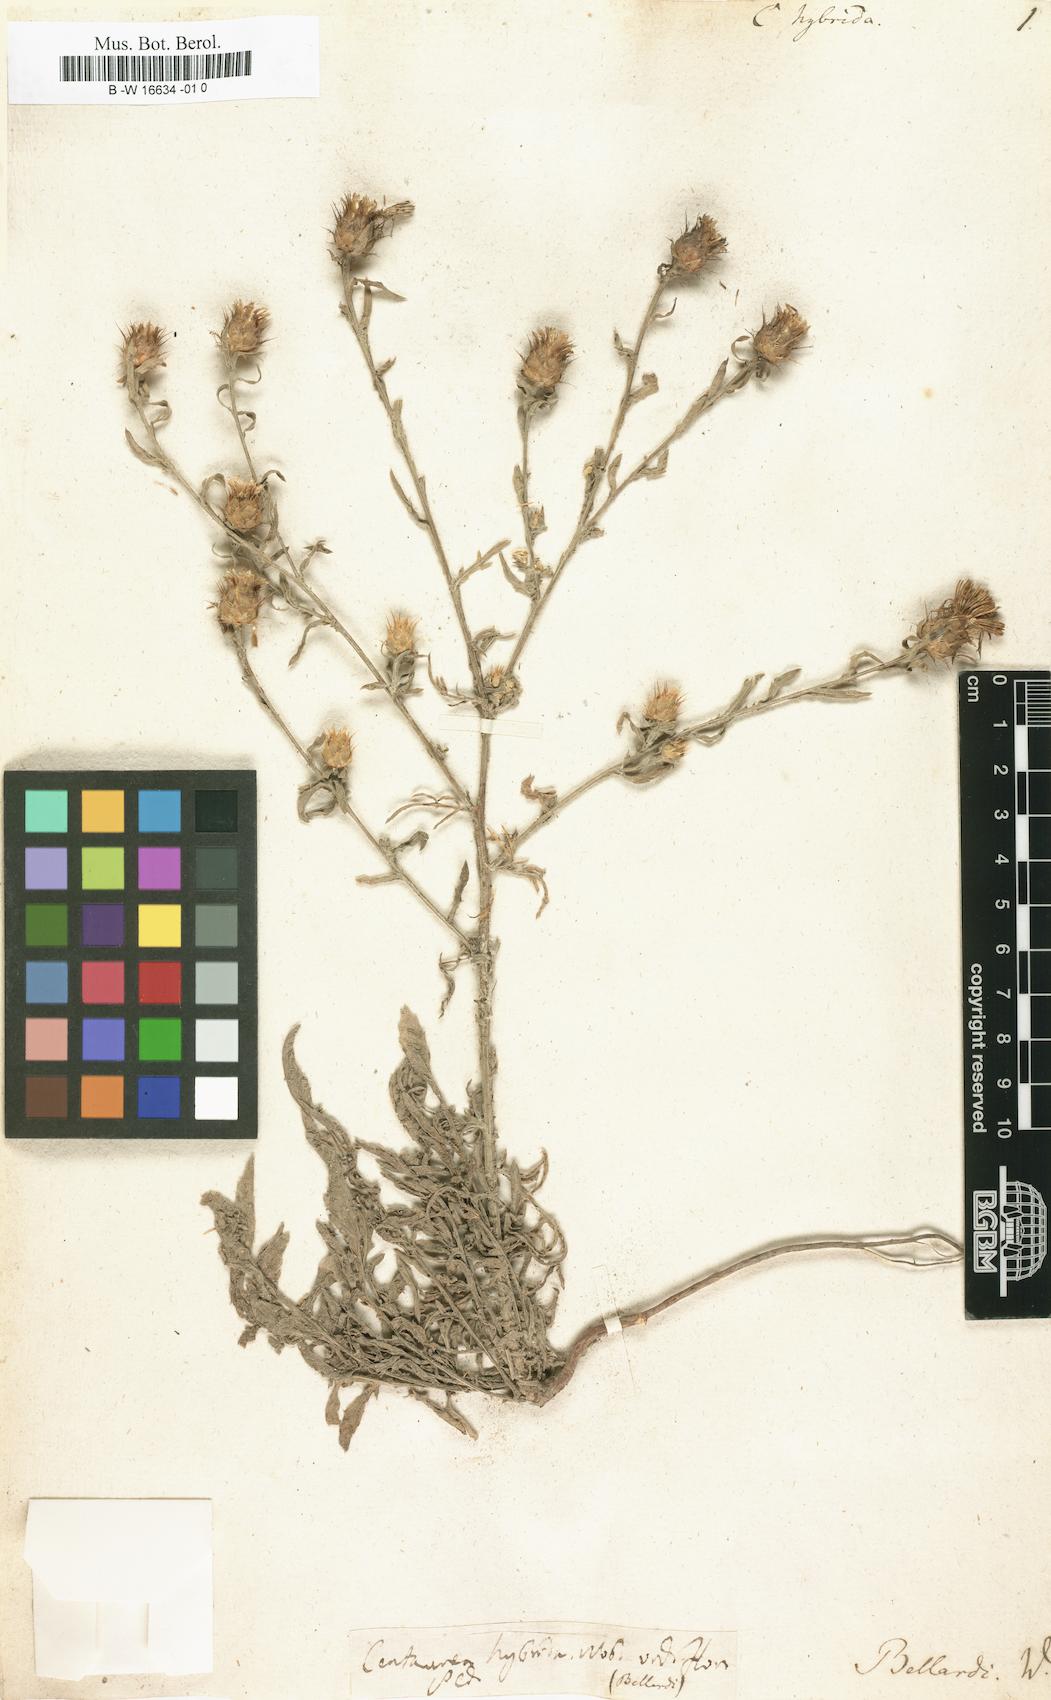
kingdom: Plantae
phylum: Tracheophyta
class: Magnoliopsida
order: Asterales
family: Asteraceae
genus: Centaurea
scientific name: Centaurea
